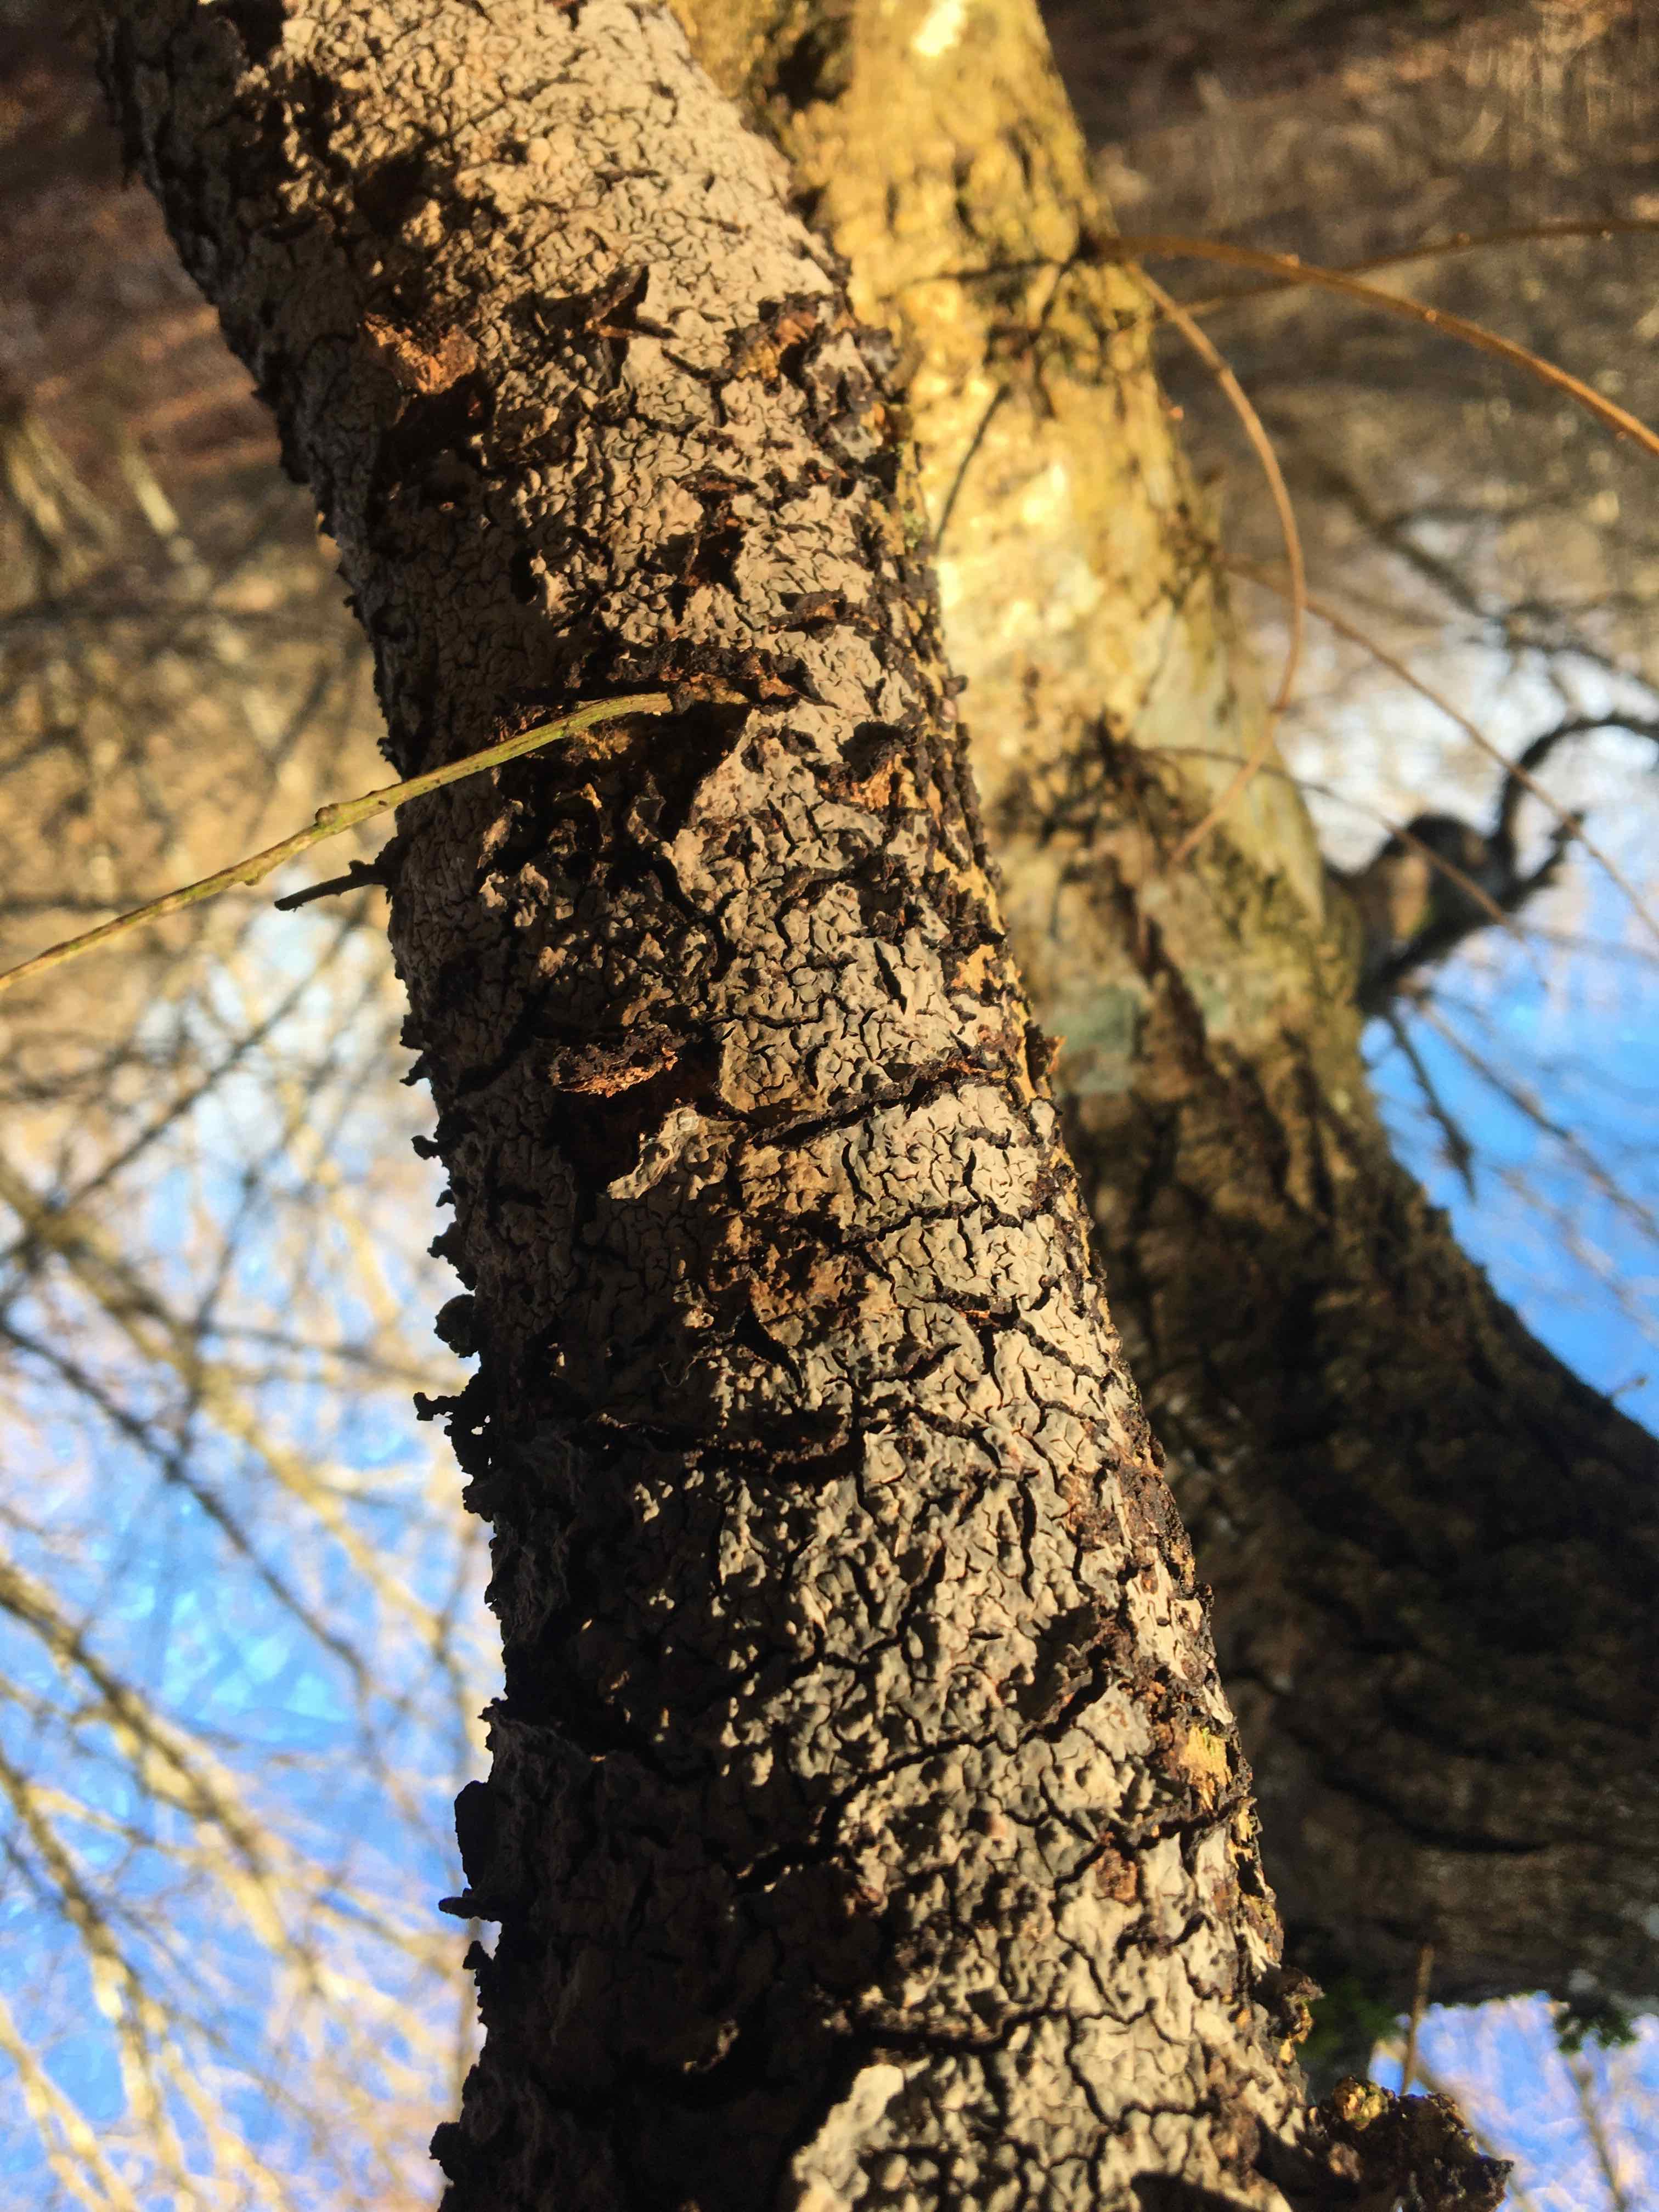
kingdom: Fungi
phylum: Basidiomycota
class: Agaricomycetes
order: Russulales
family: Peniophoraceae
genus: Peniophora
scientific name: Peniophora quercina
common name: ege-voksskind
